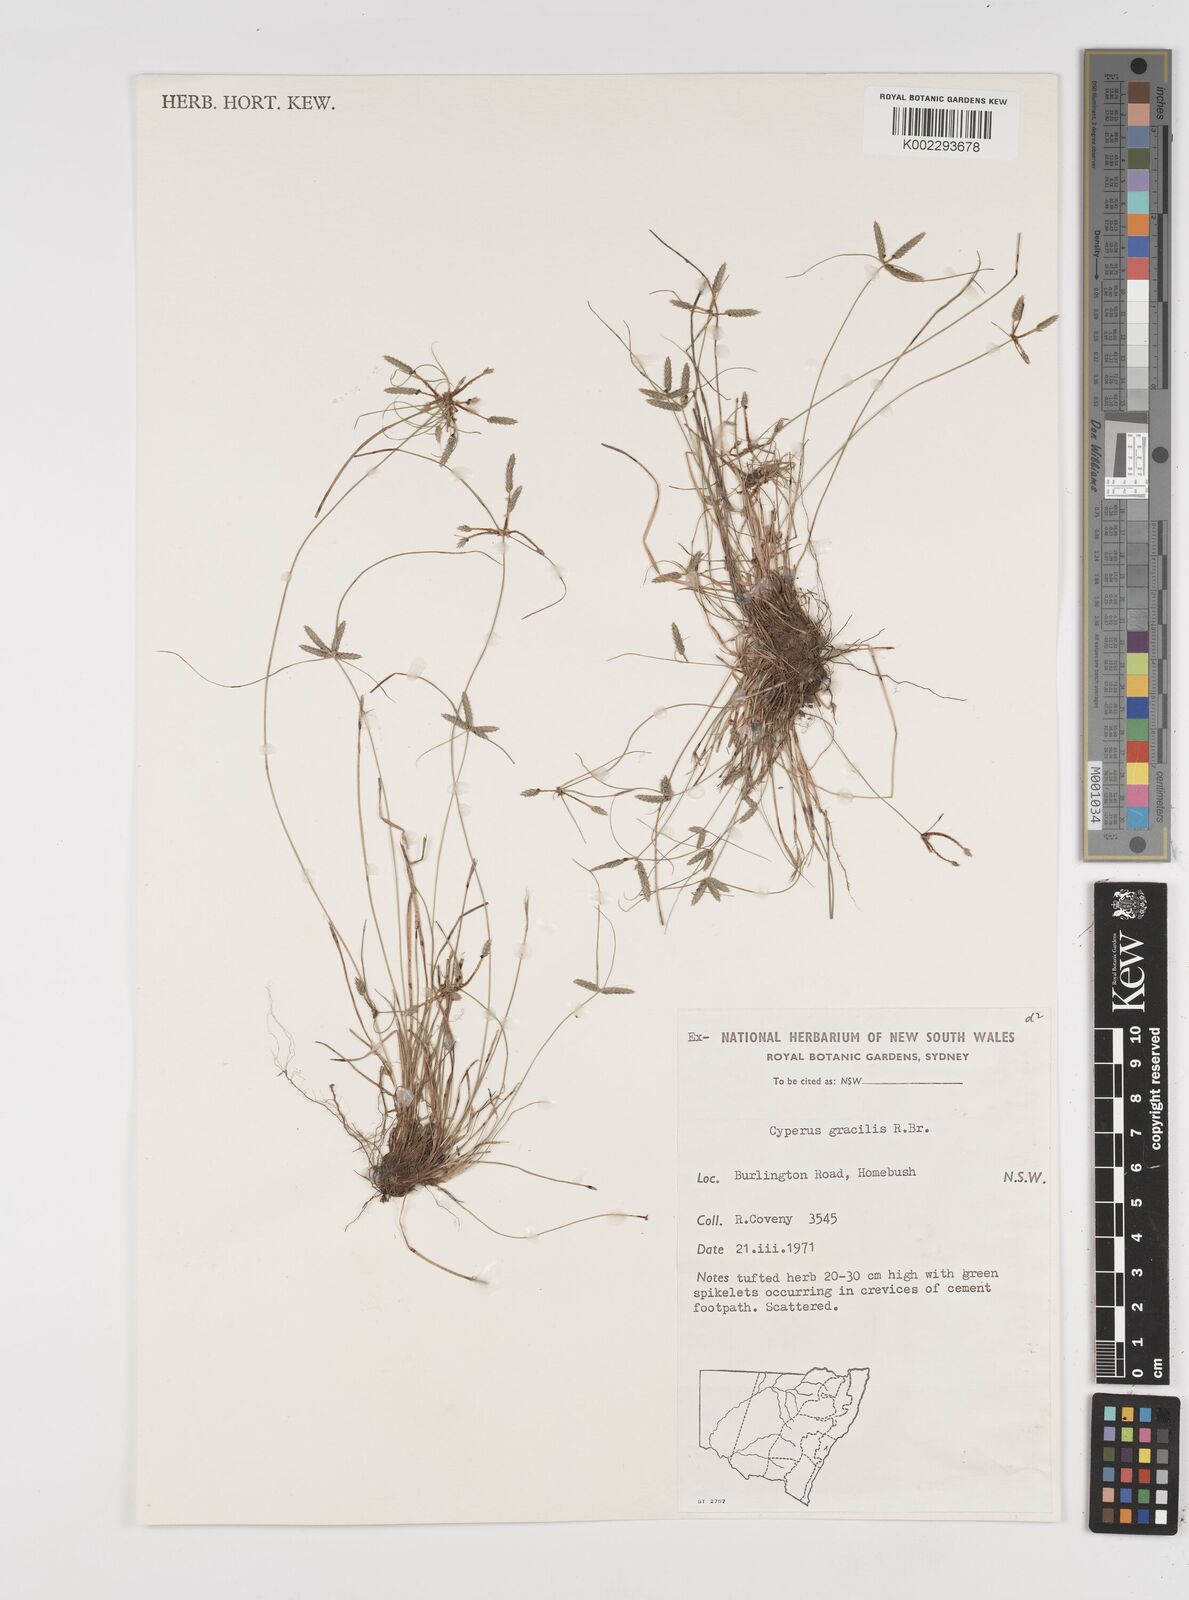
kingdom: Plantae
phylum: Tracheophyta
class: Liliopsida
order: Poales
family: Cyperaceae
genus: Cyperus
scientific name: Cyperus gracilis
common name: Slimjim flatsedge
